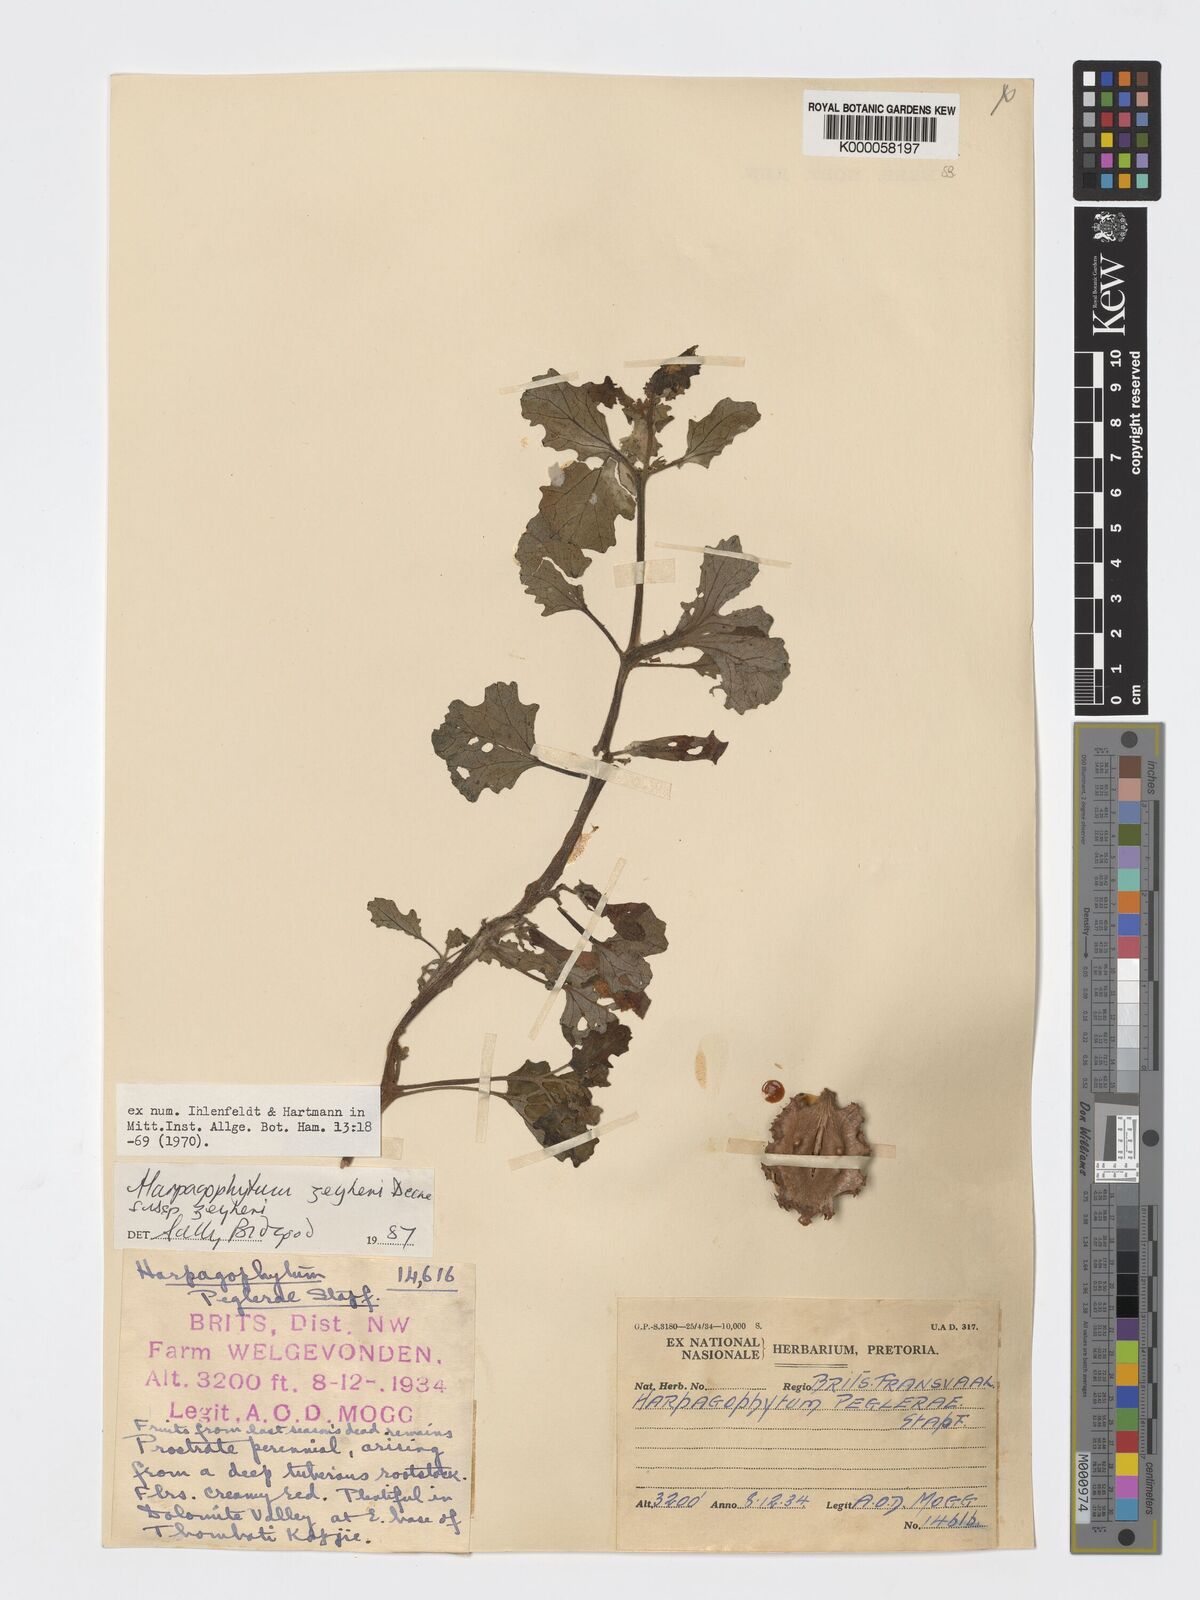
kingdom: Plantae
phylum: Tracheophyta
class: Magnoliopsida
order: Lamiales
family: Pedaliaceae
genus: Harpagophytum
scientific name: Harpagophytum zeyheri
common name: Grappleplant
